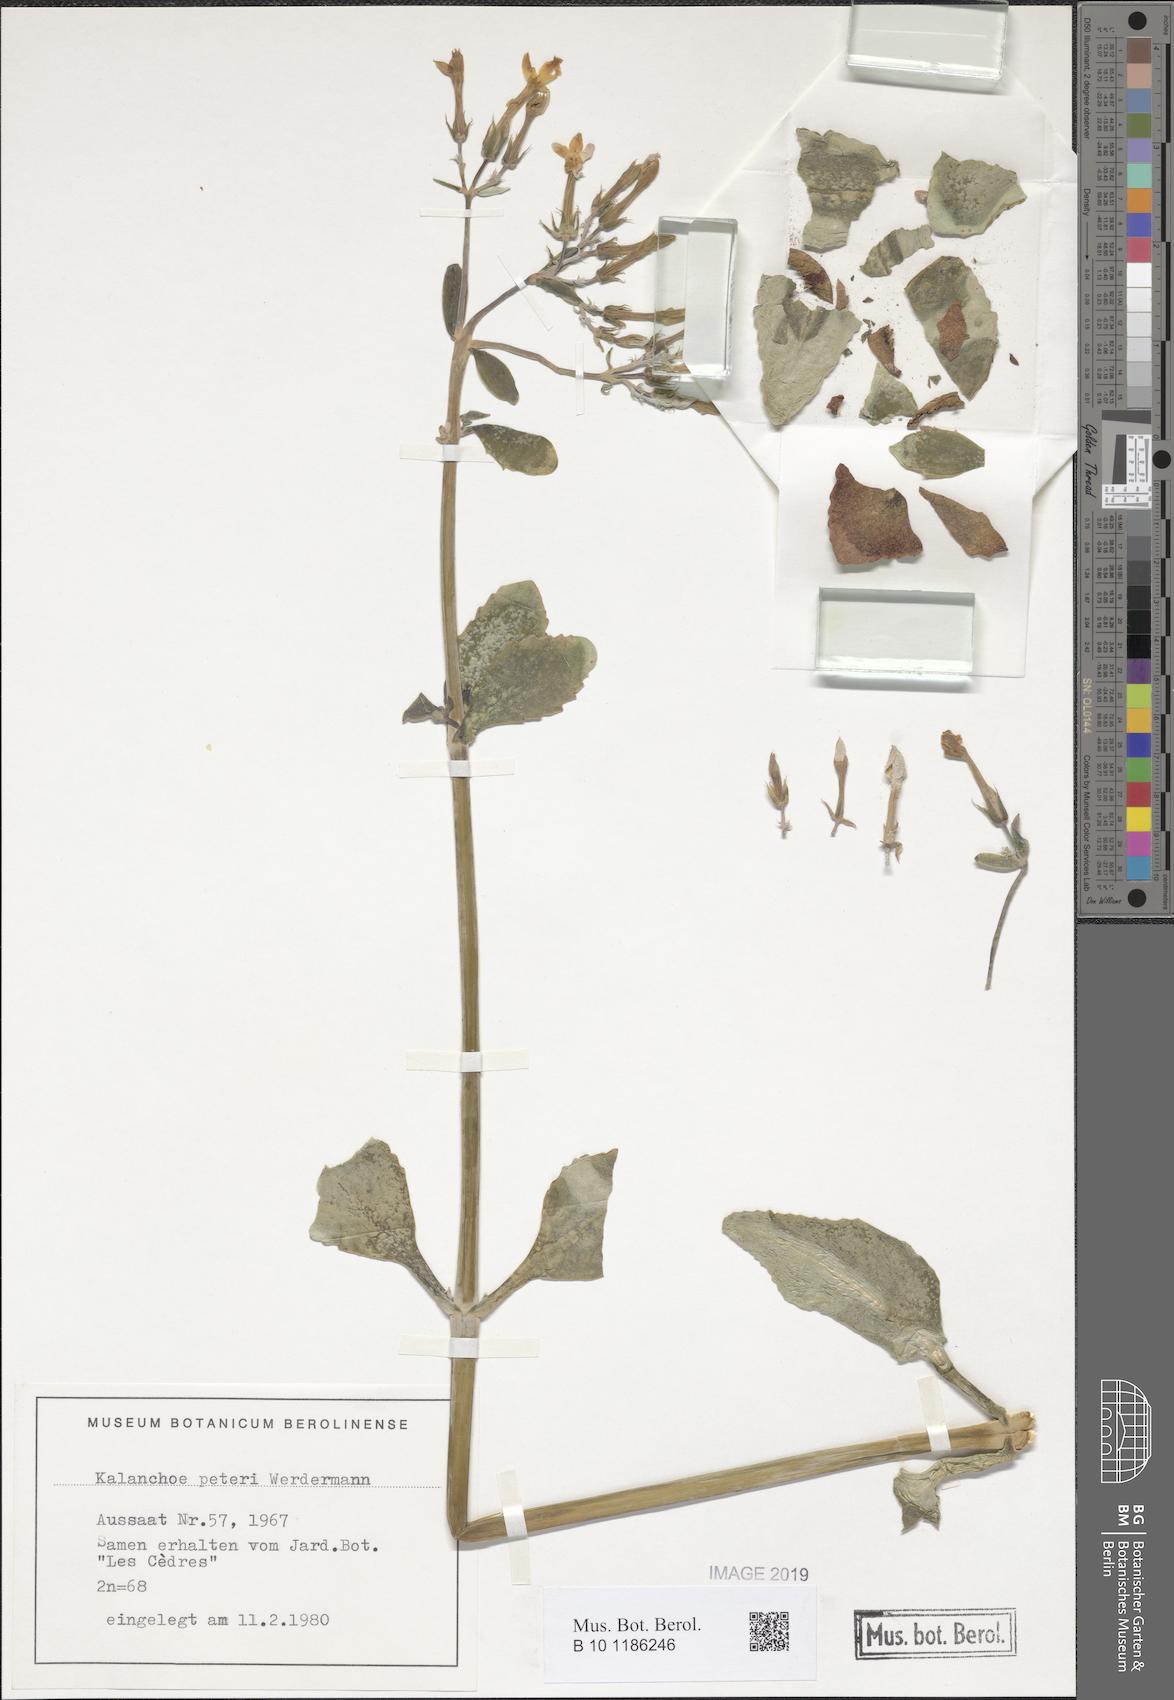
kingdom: Plantae
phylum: Tracheophyta
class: Magnoliopsida
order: Saxifragales
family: Crassulaceae
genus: Kalanchoe
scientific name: Kalanchoe peteri
